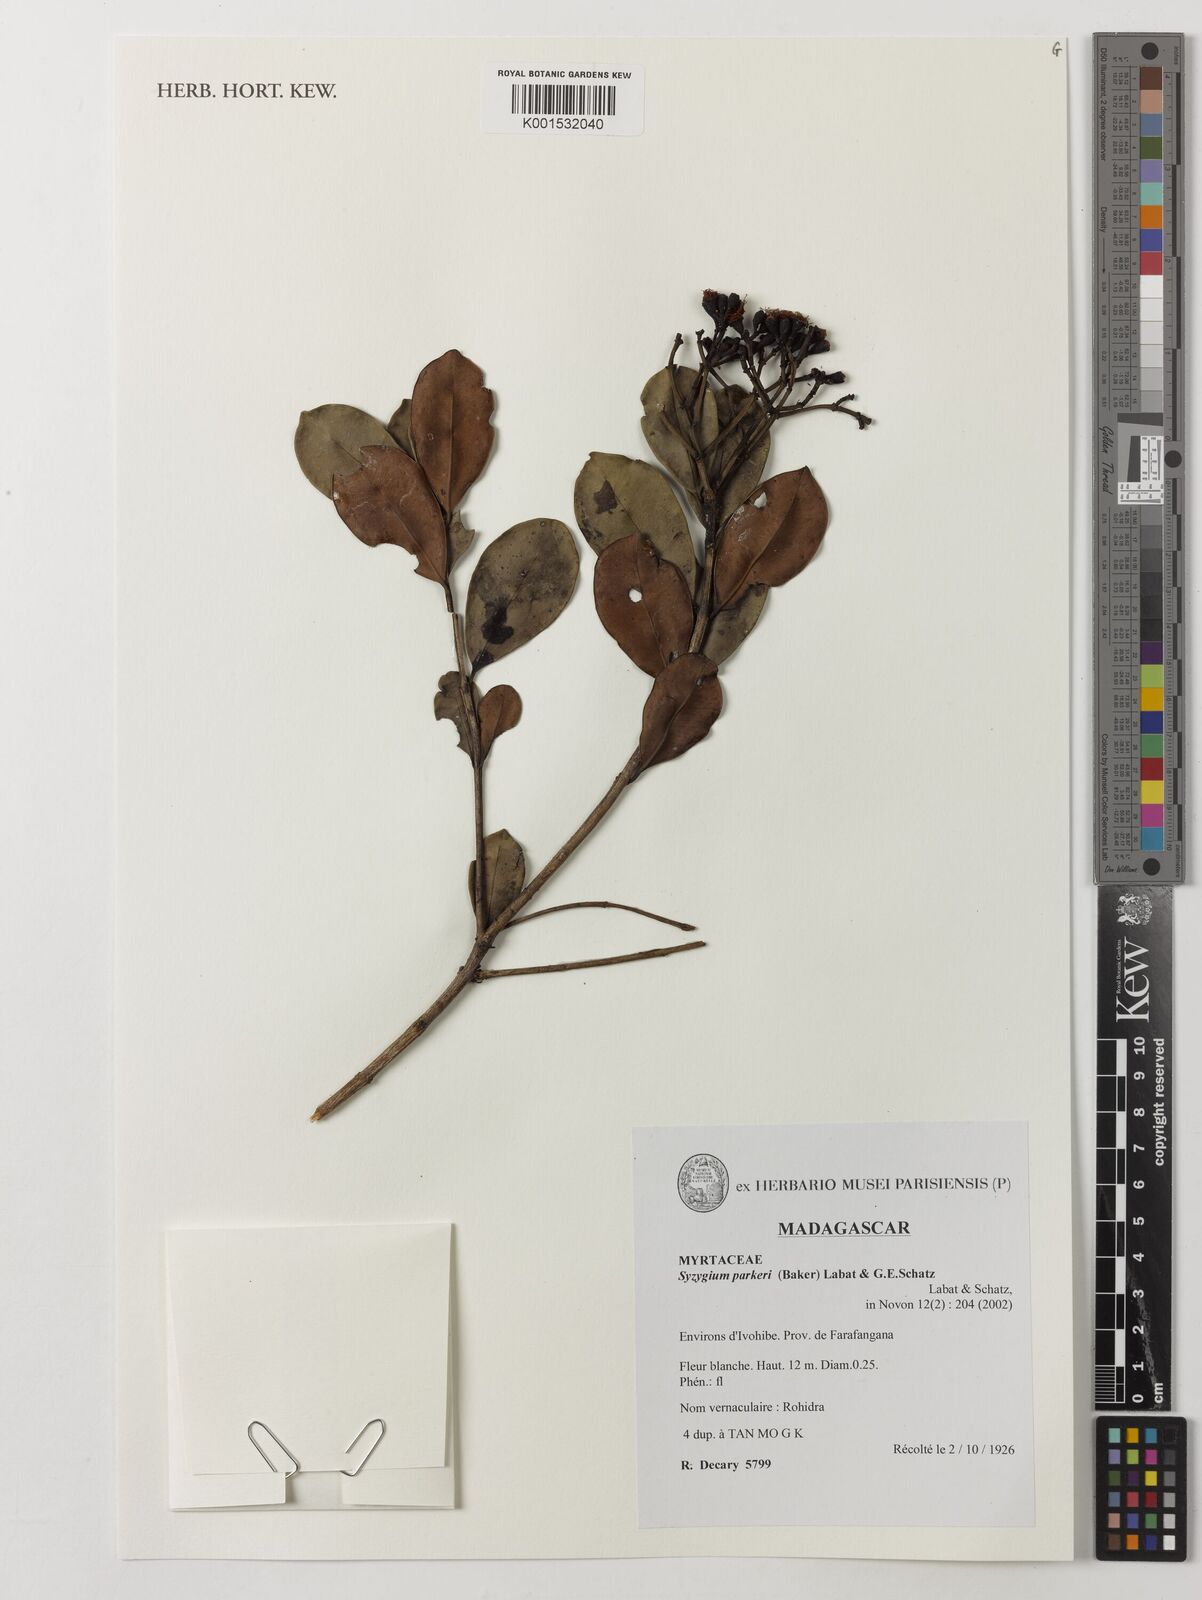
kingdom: Plantae
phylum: Tracheophyta
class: Magnoliopsida
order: Myrtales
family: Myrtaceae
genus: Syzygium
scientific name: Syzygium parkeri
